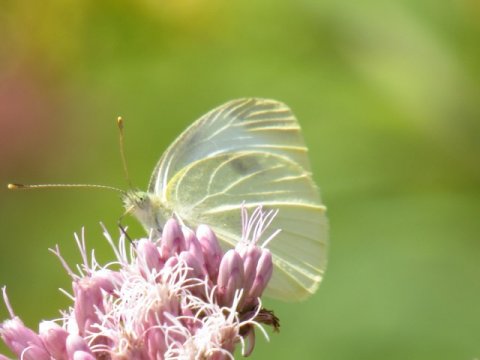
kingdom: Animalia
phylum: Arthropoda
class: Insecta
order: Lepidoptera
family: Pieridae
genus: Pieris
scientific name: Pieris rapae
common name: Cabbage White
